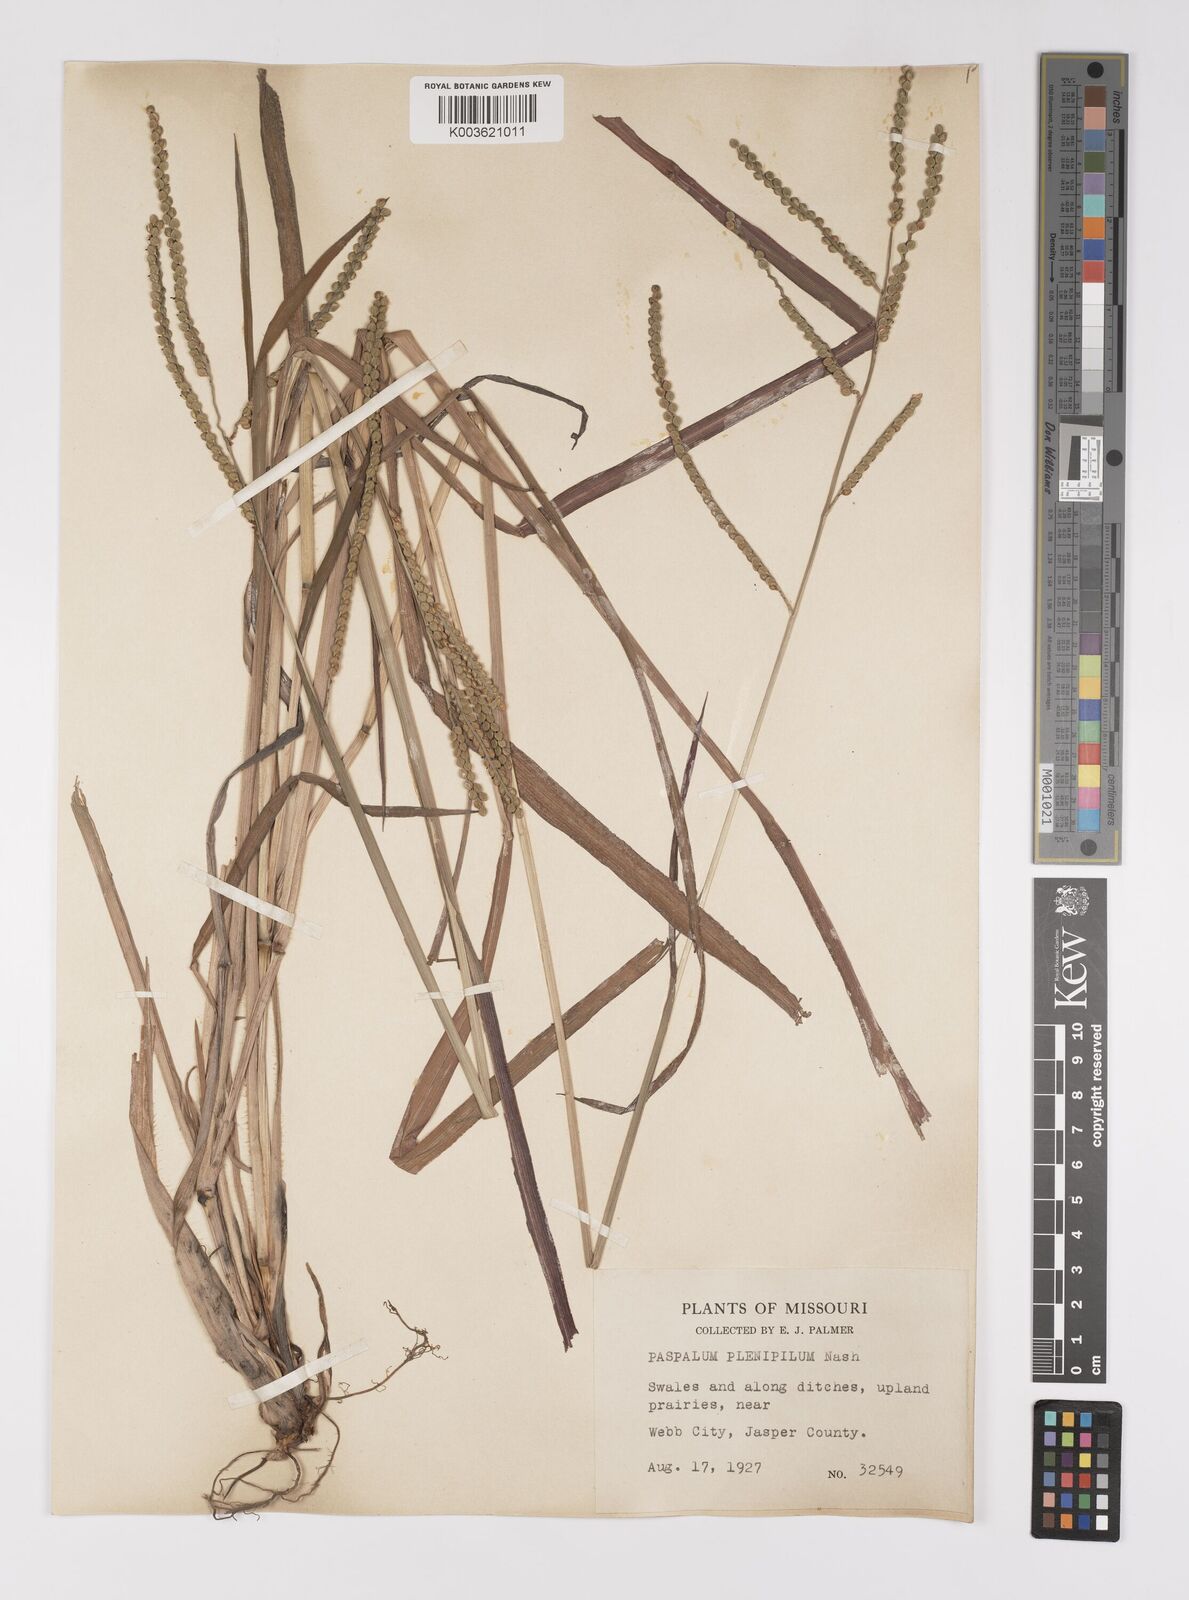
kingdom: Plantae
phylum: Tracheophyta
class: Liliopsida
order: Poales
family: Poaceae
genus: Paspalum
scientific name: Paspalum laeve
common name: Field paspalum
